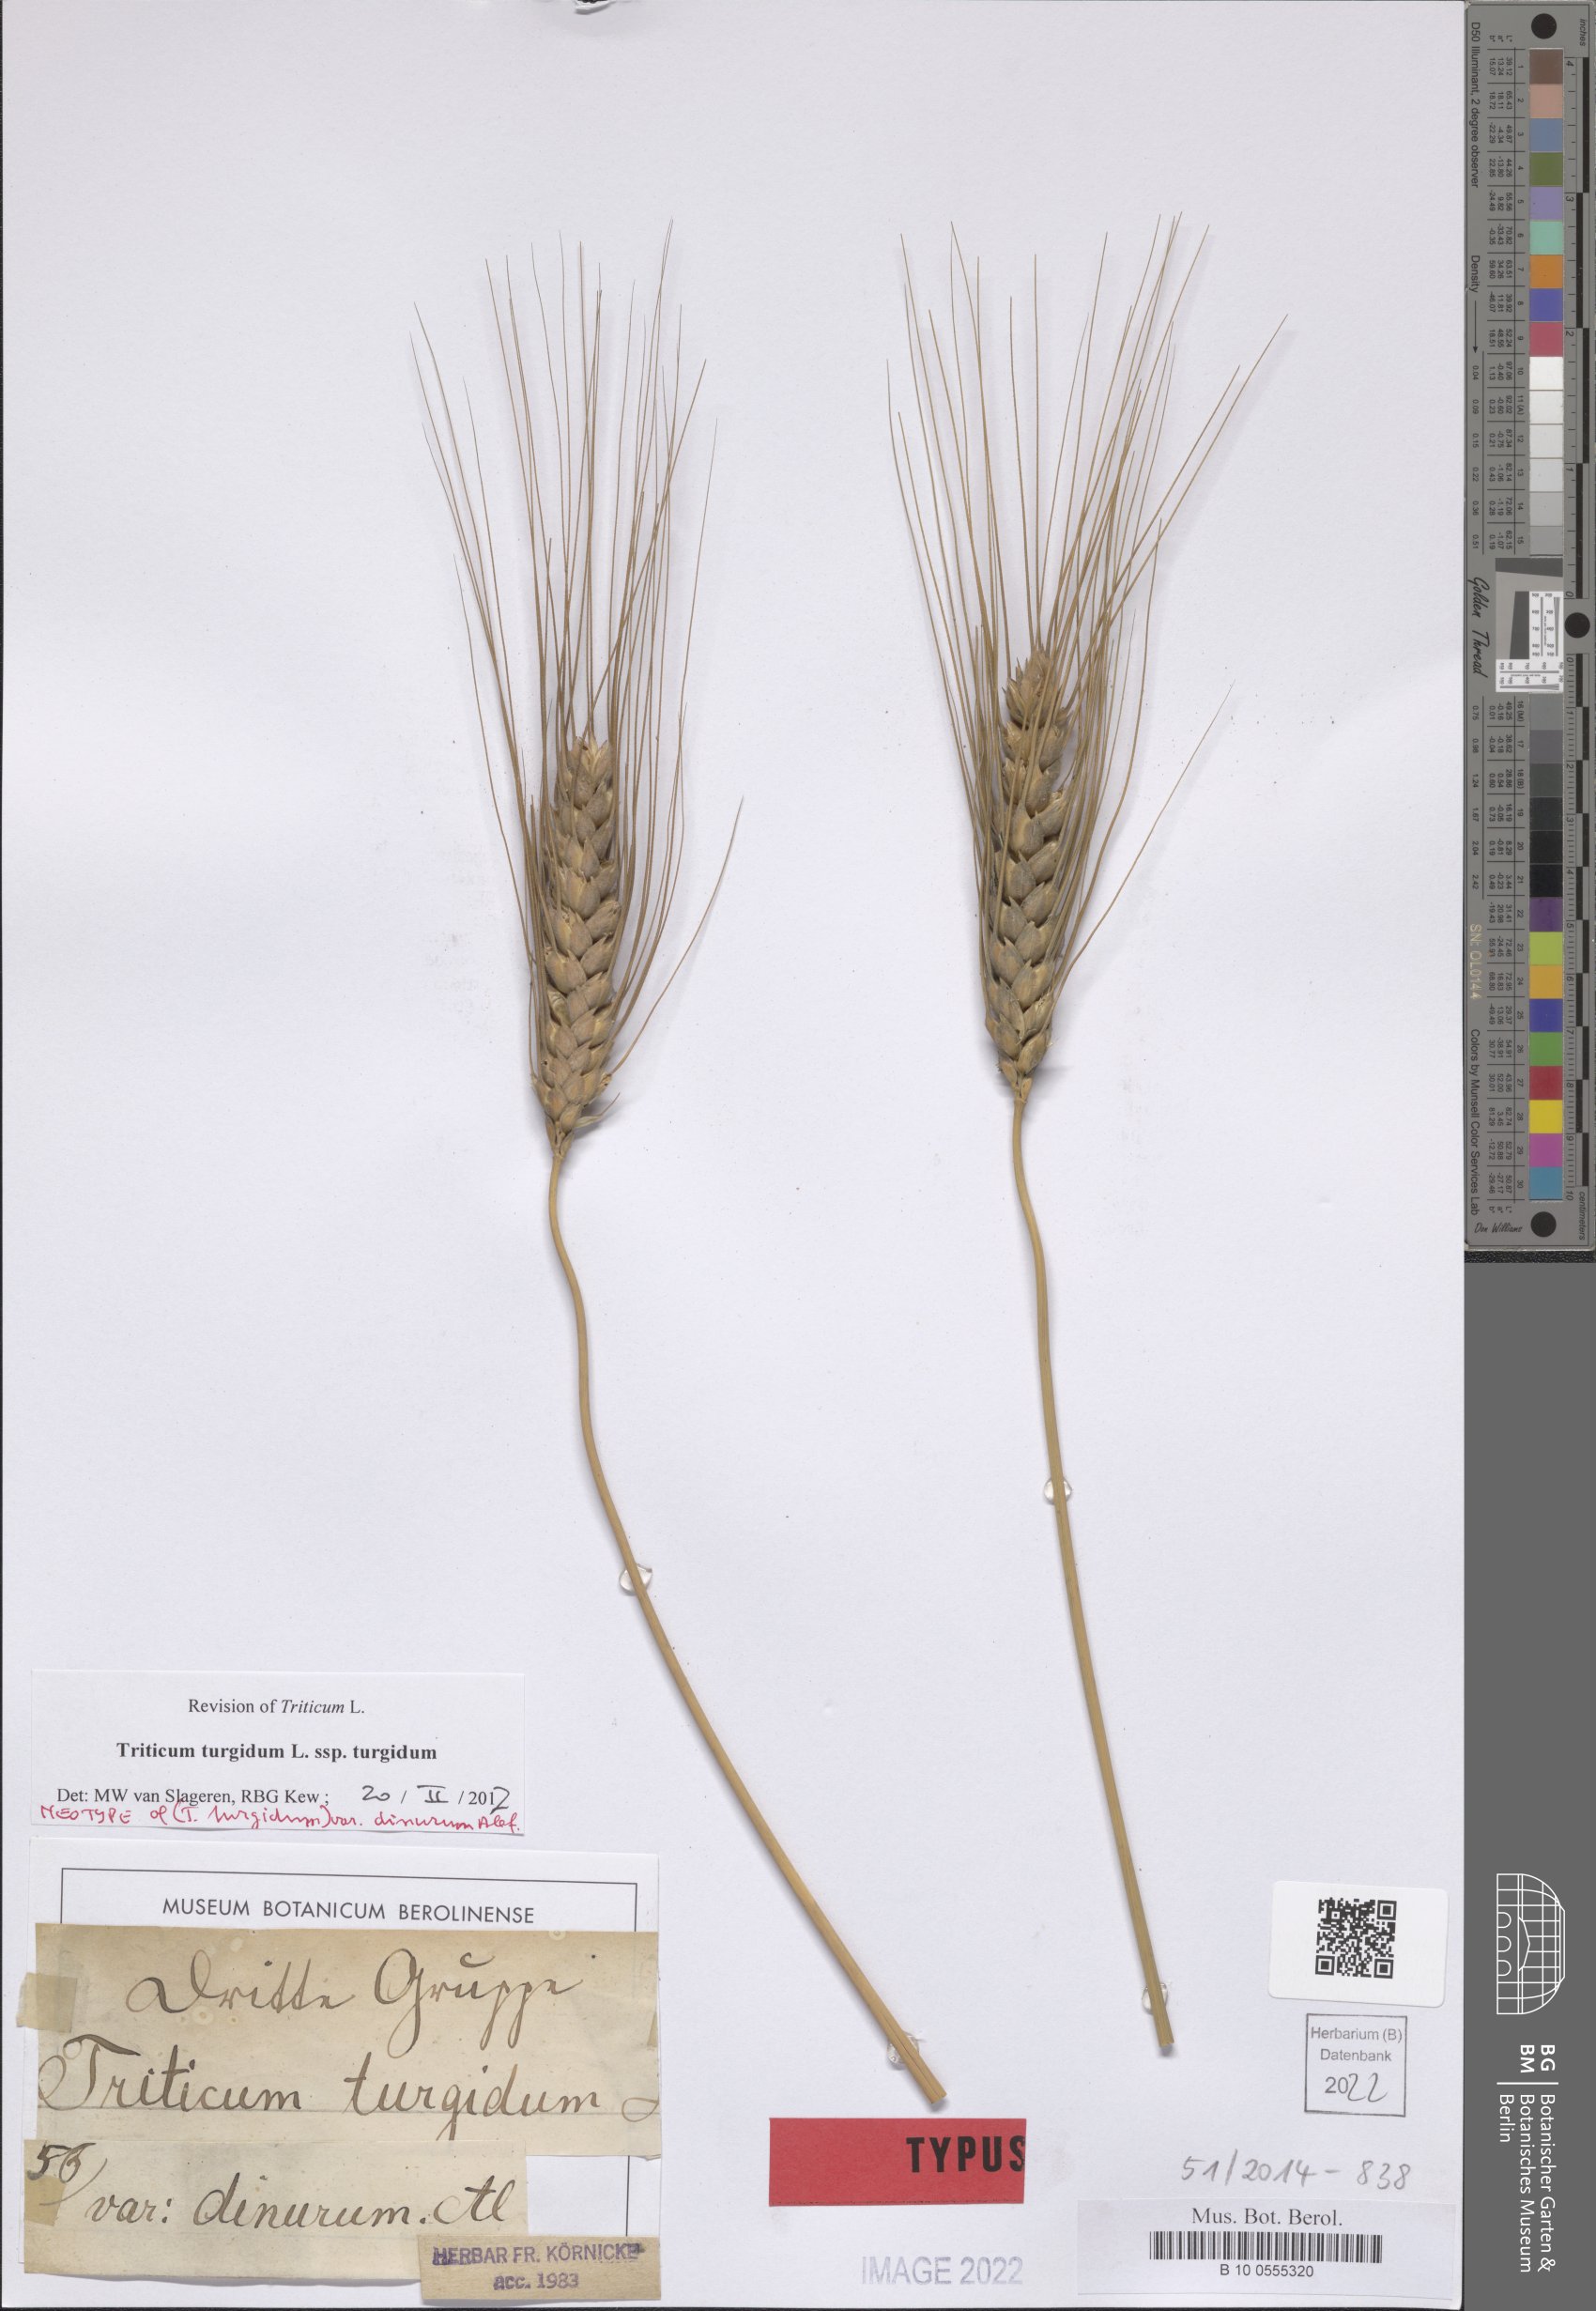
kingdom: Plantae
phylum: Tracheophyta
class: Liliopsida
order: Poales
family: Poaceae
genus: Triticum
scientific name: Triticum turgidum
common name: Rivet wheat
